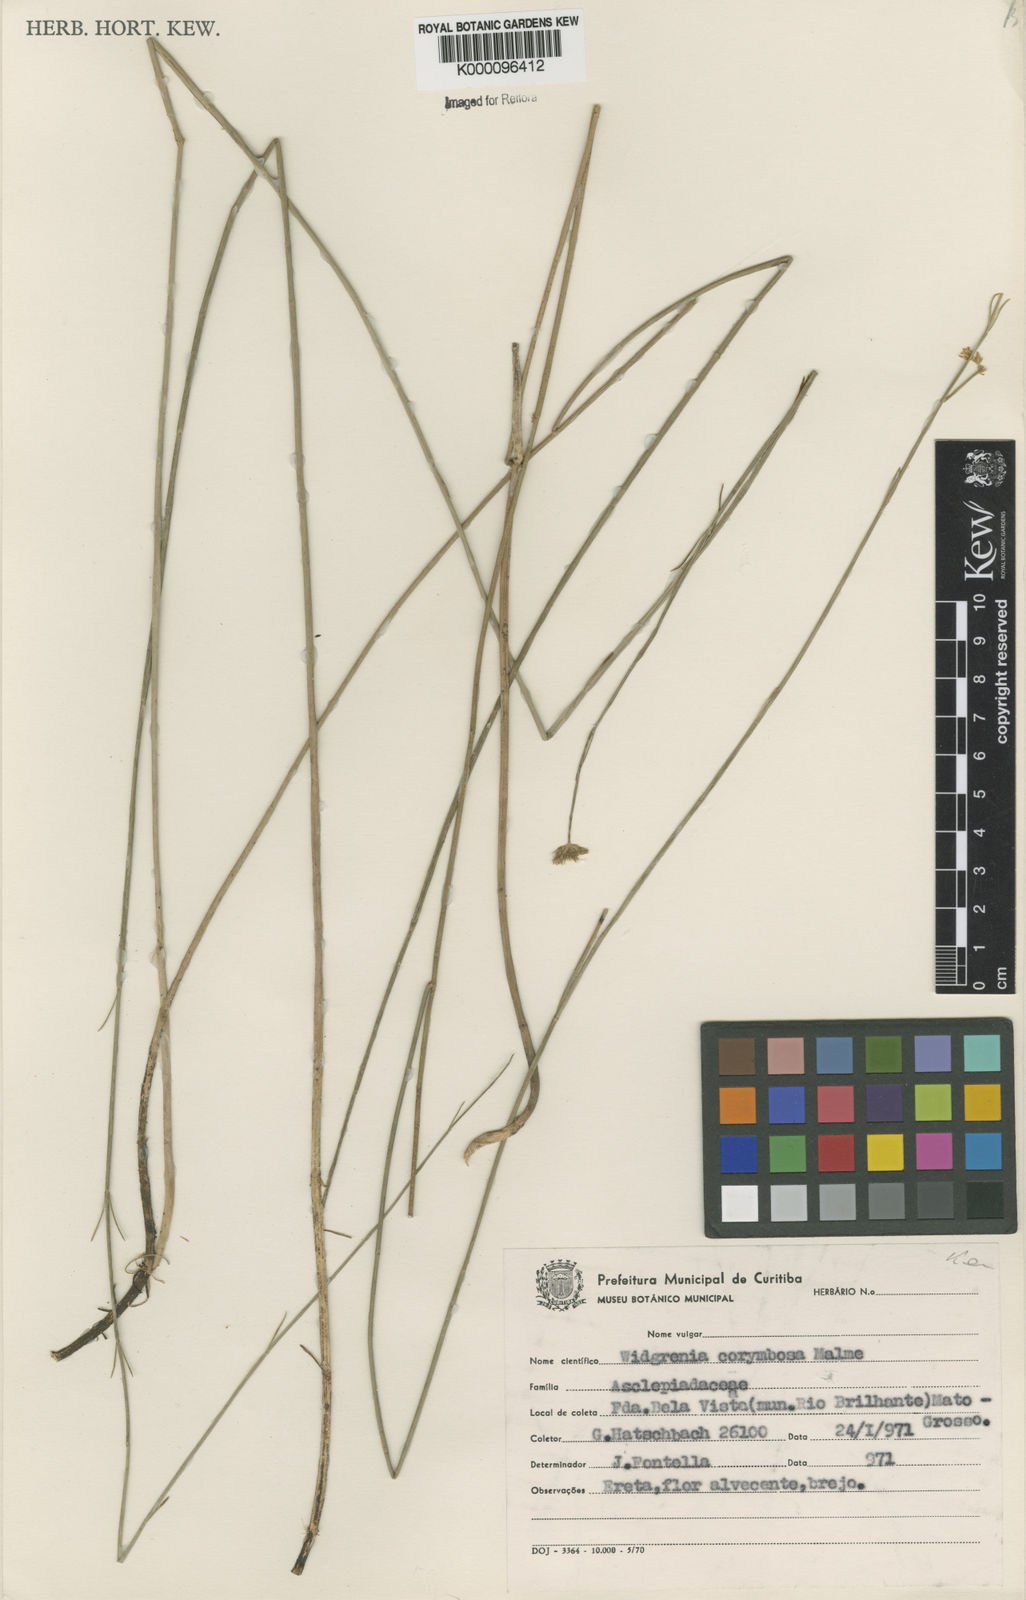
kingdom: Plantae
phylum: Tracheophyta
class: Magnoliopsida
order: Gentianales
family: Apocynaceae
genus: Oxypetalum
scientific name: Oxypetalum corymbosum
